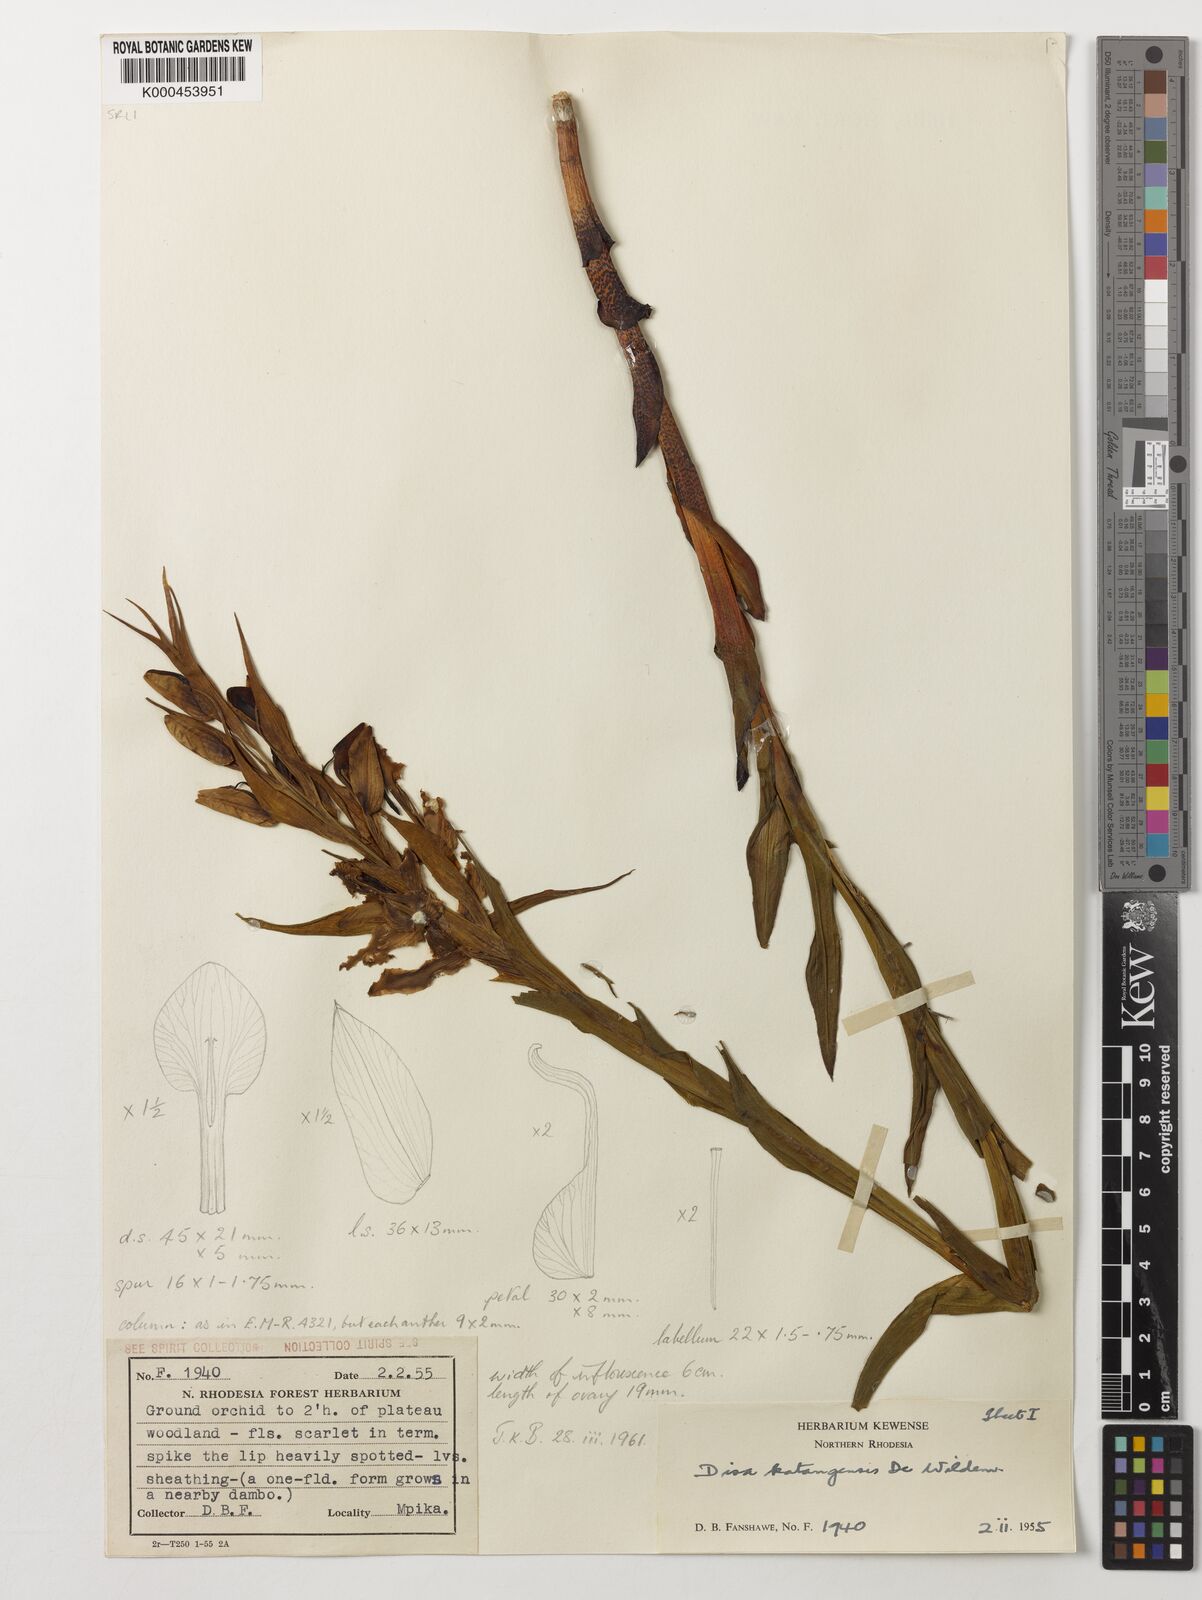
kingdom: Plantae
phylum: Tracheophyta
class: Liliopsida
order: Asparagales
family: Orchidaceae
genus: Disa
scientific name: Disa katangensis
